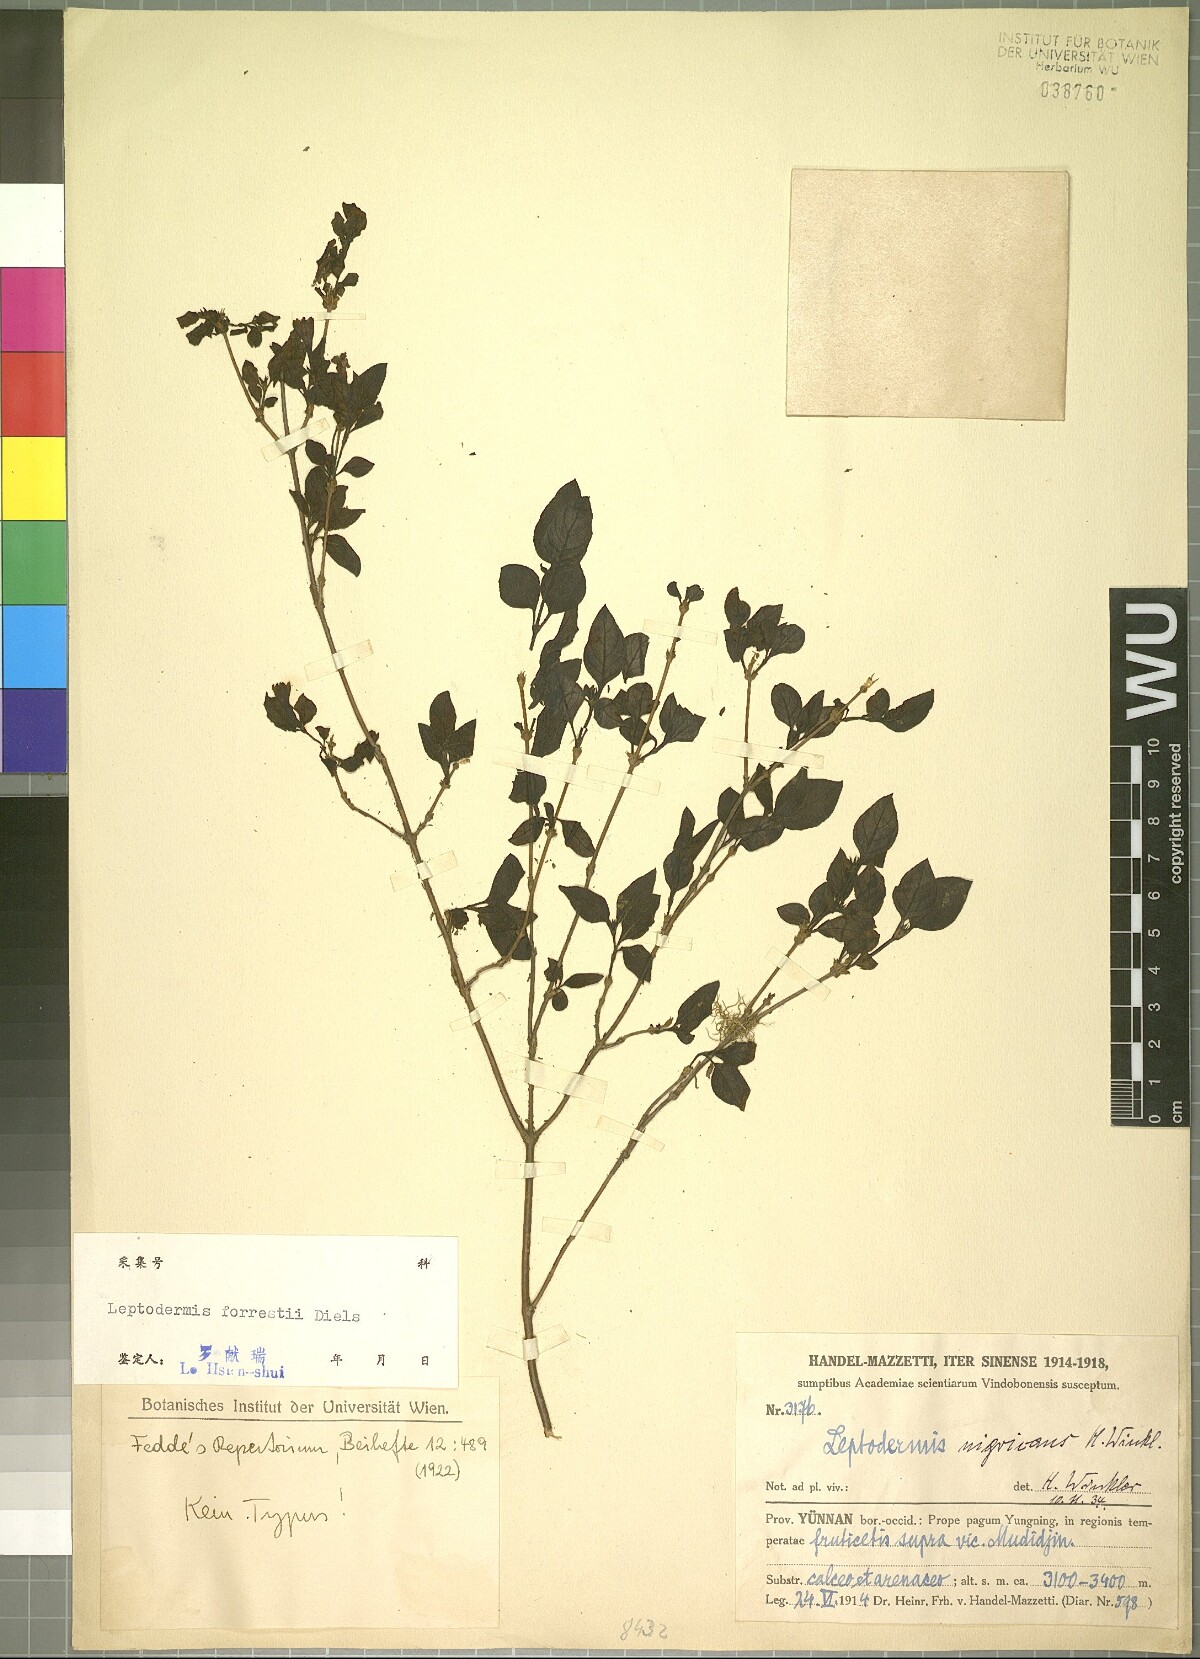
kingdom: Plantae
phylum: Tracheophyta
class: Magnoliopsida
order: Gentianales
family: Rubiaceae
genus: Leptodermis
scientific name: Leptodermis forrestii
